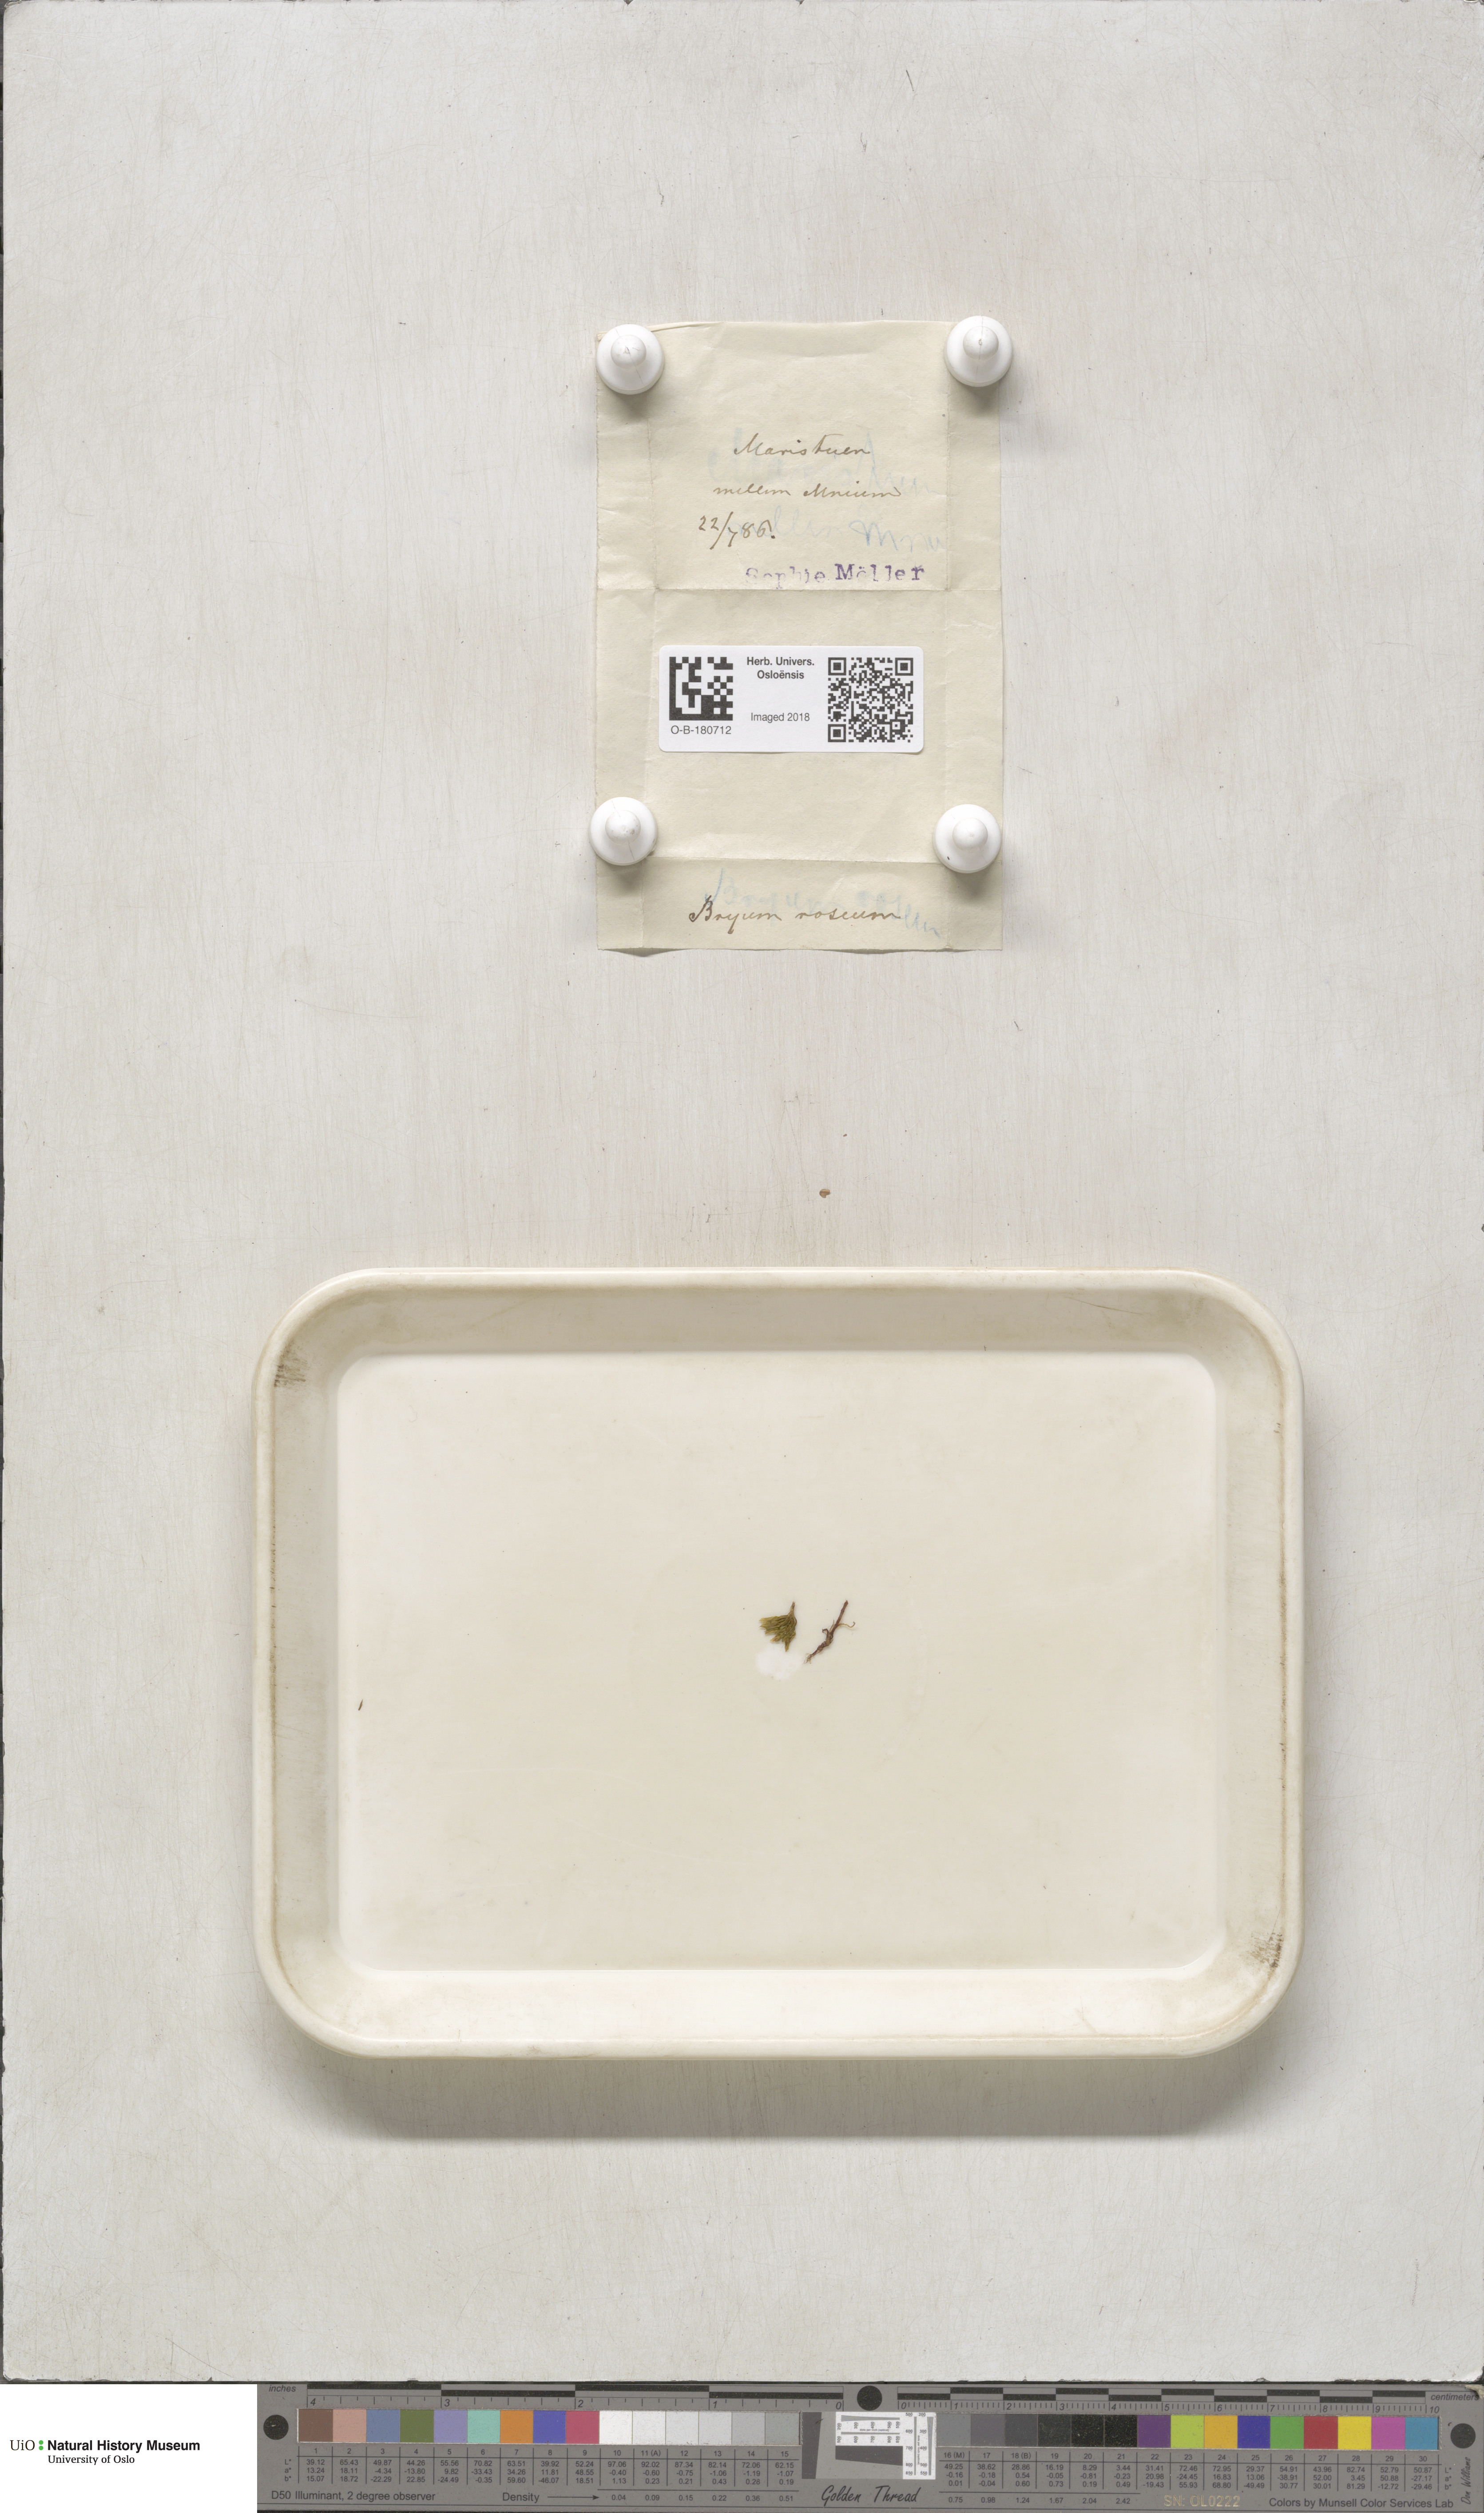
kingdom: Plantae
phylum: Bryophyta
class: Bryopsida
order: Bryales
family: Bryaceae
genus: Rhodobryum
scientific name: Rhodobryum roseum
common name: Rose-moss
